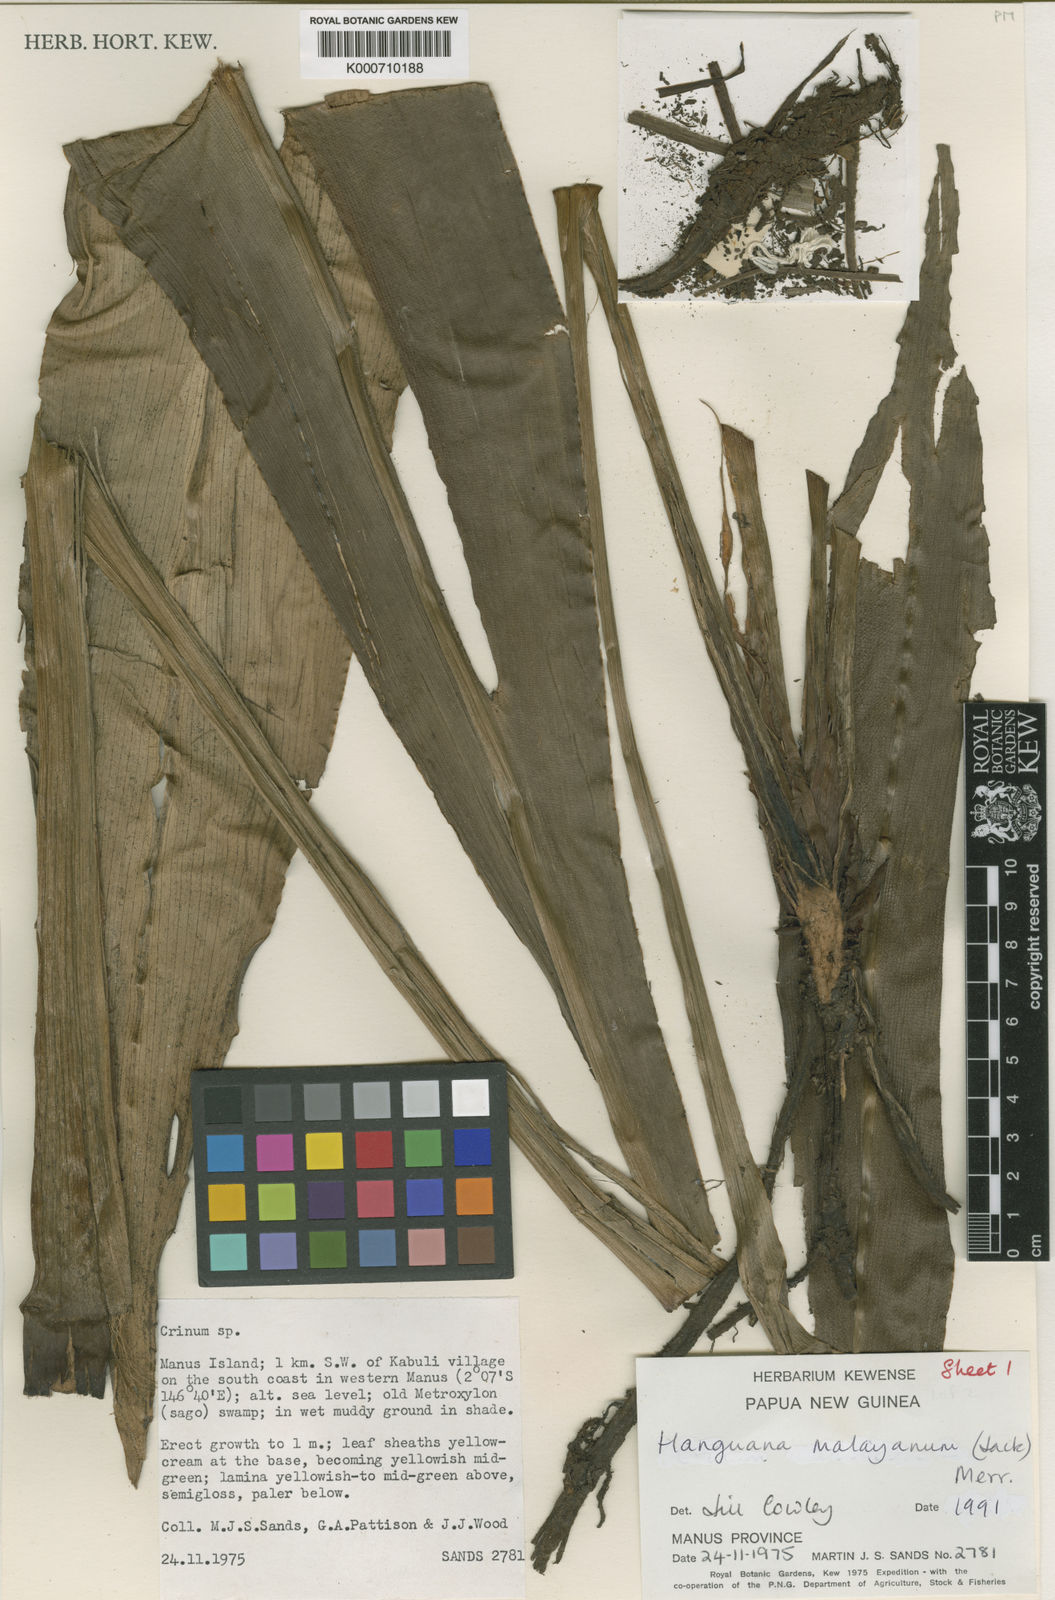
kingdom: Plantae
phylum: Tracheophyta
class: Liliopsida
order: Commelinales
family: Hanguanaceae
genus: Hanguana
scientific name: Hanguana malayana
